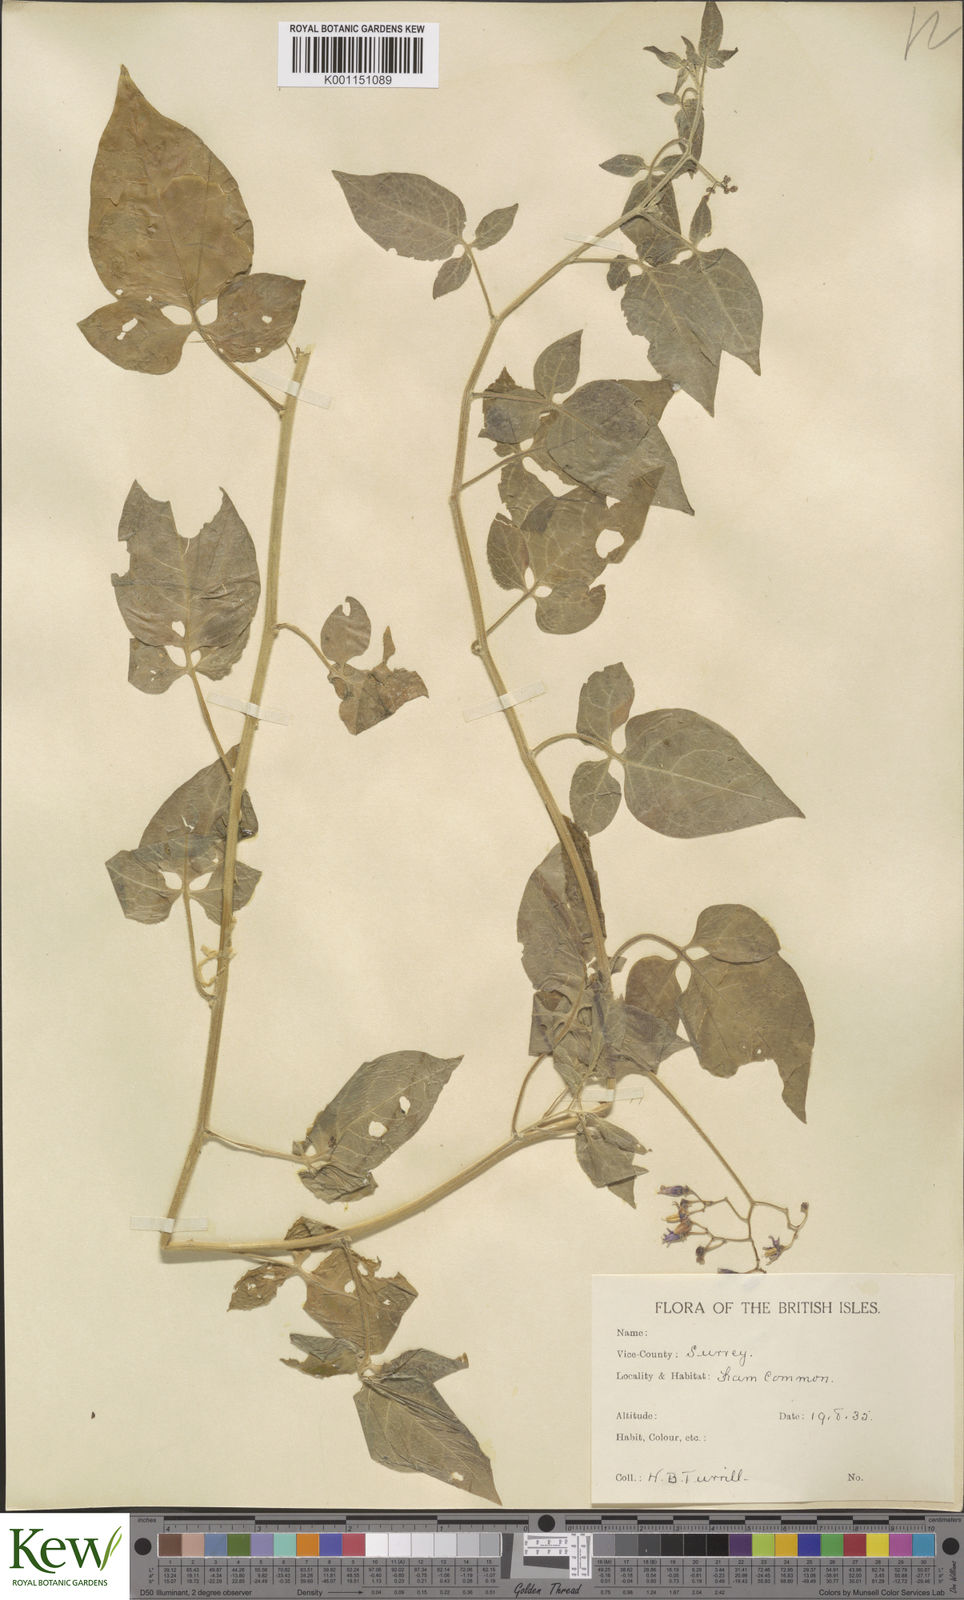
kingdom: Plantae
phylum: Tracheophyta
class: Magnoliopsida
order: Solanales
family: Solanaceae
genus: Solanum
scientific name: Solanum dulcamara
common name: Climbing nightshade
